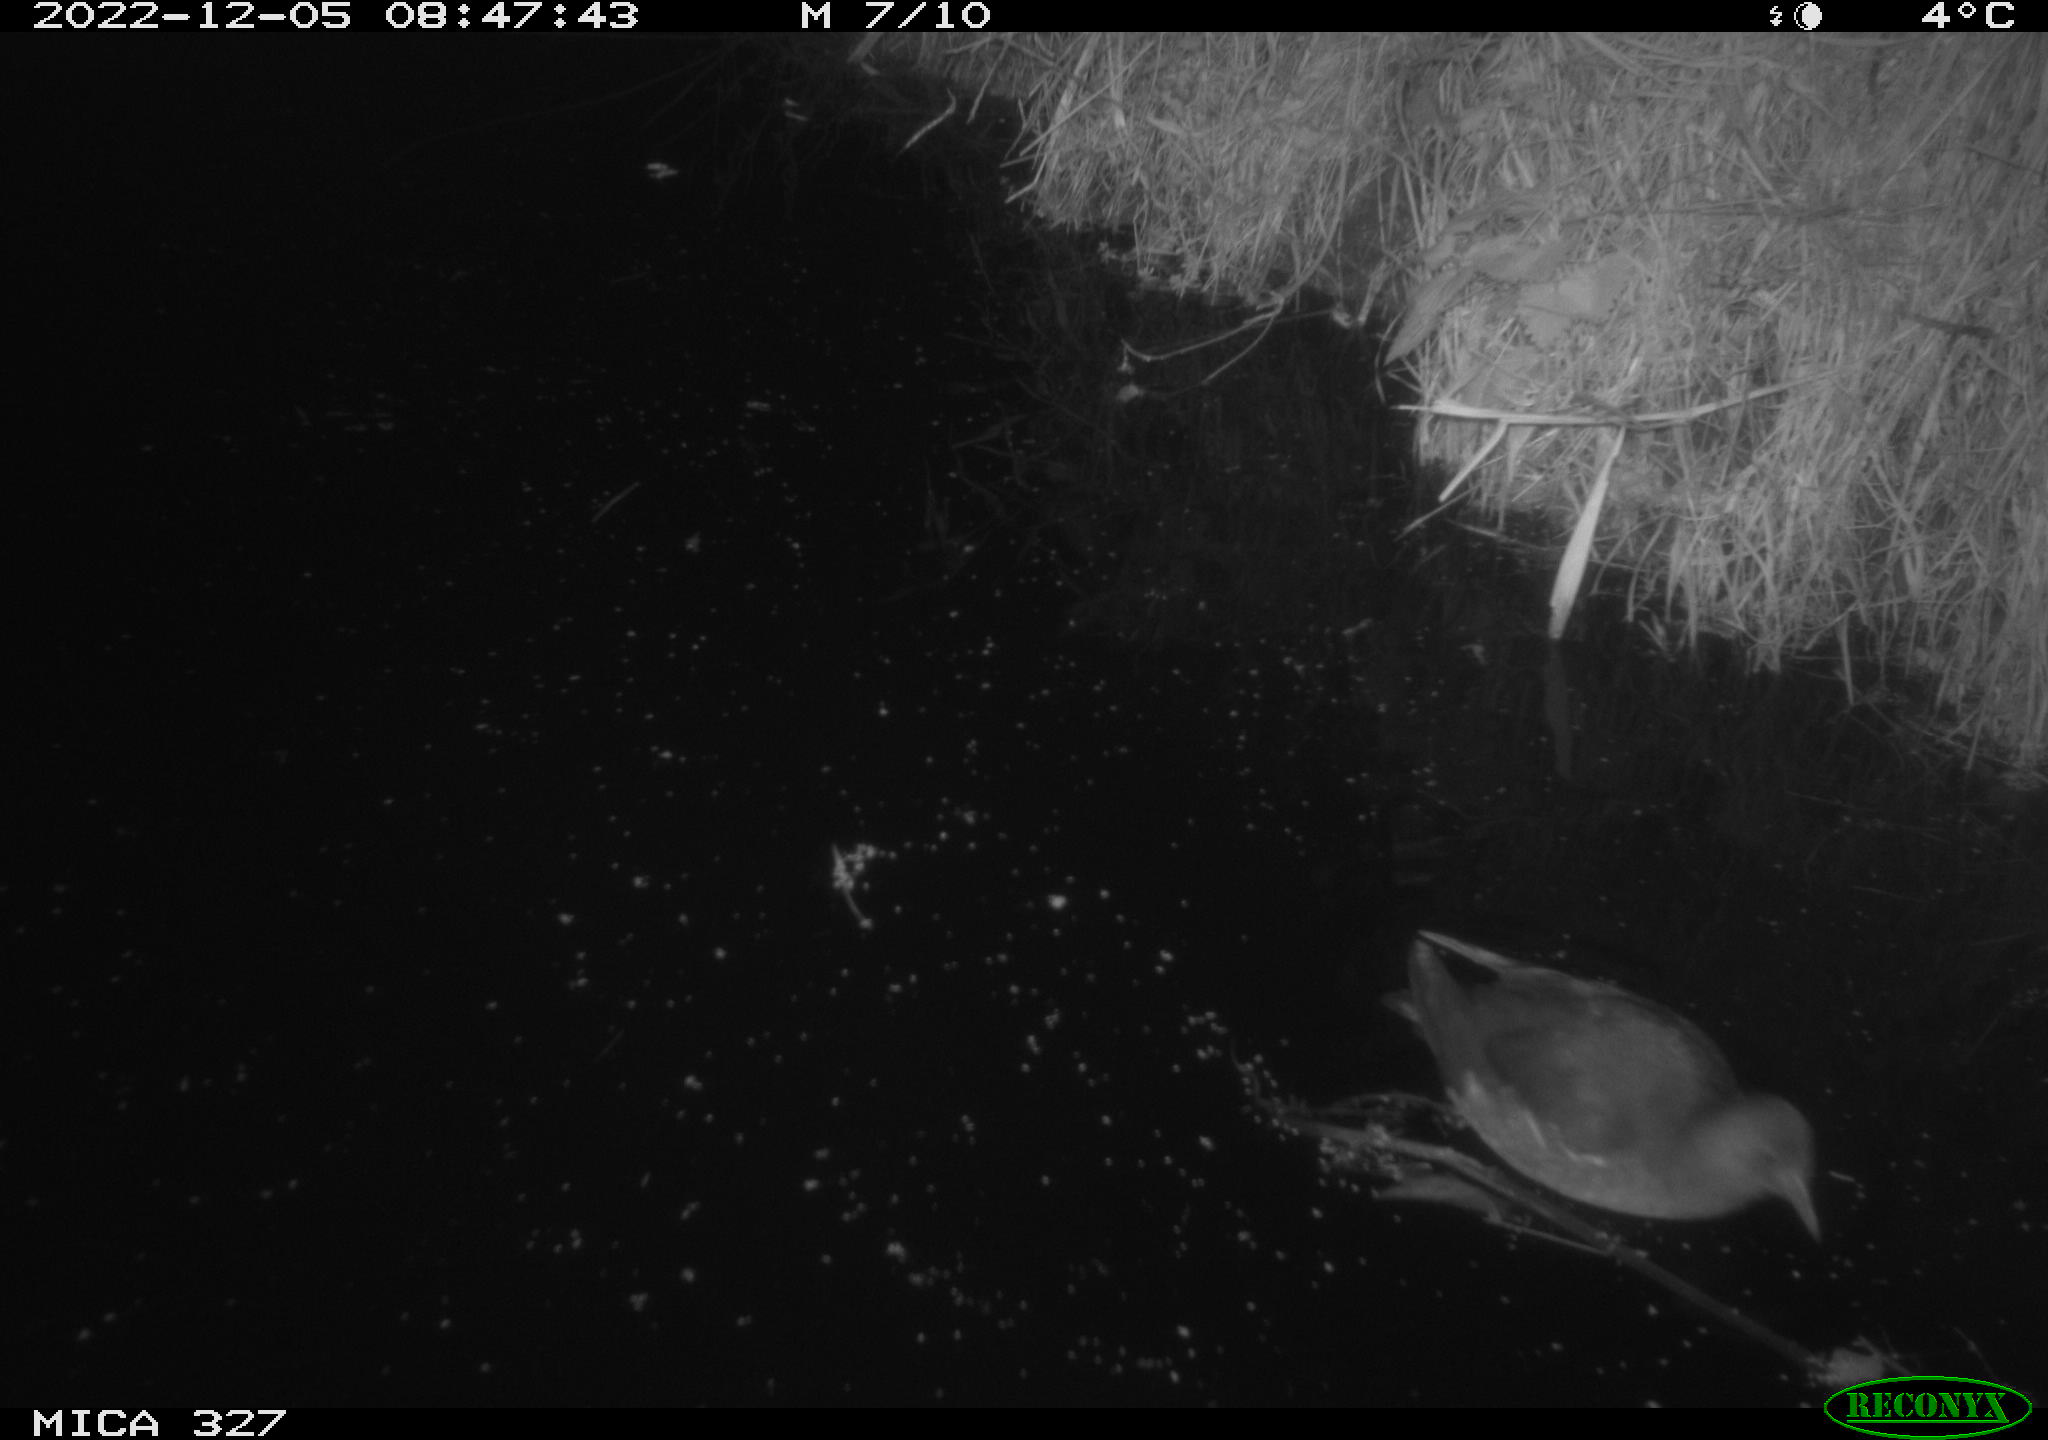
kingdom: Animalia
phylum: Chordata
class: Aves
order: Gruiformes
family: Rallidae
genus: Gallinula
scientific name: Gallinula chloropus
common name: Common moorhen
